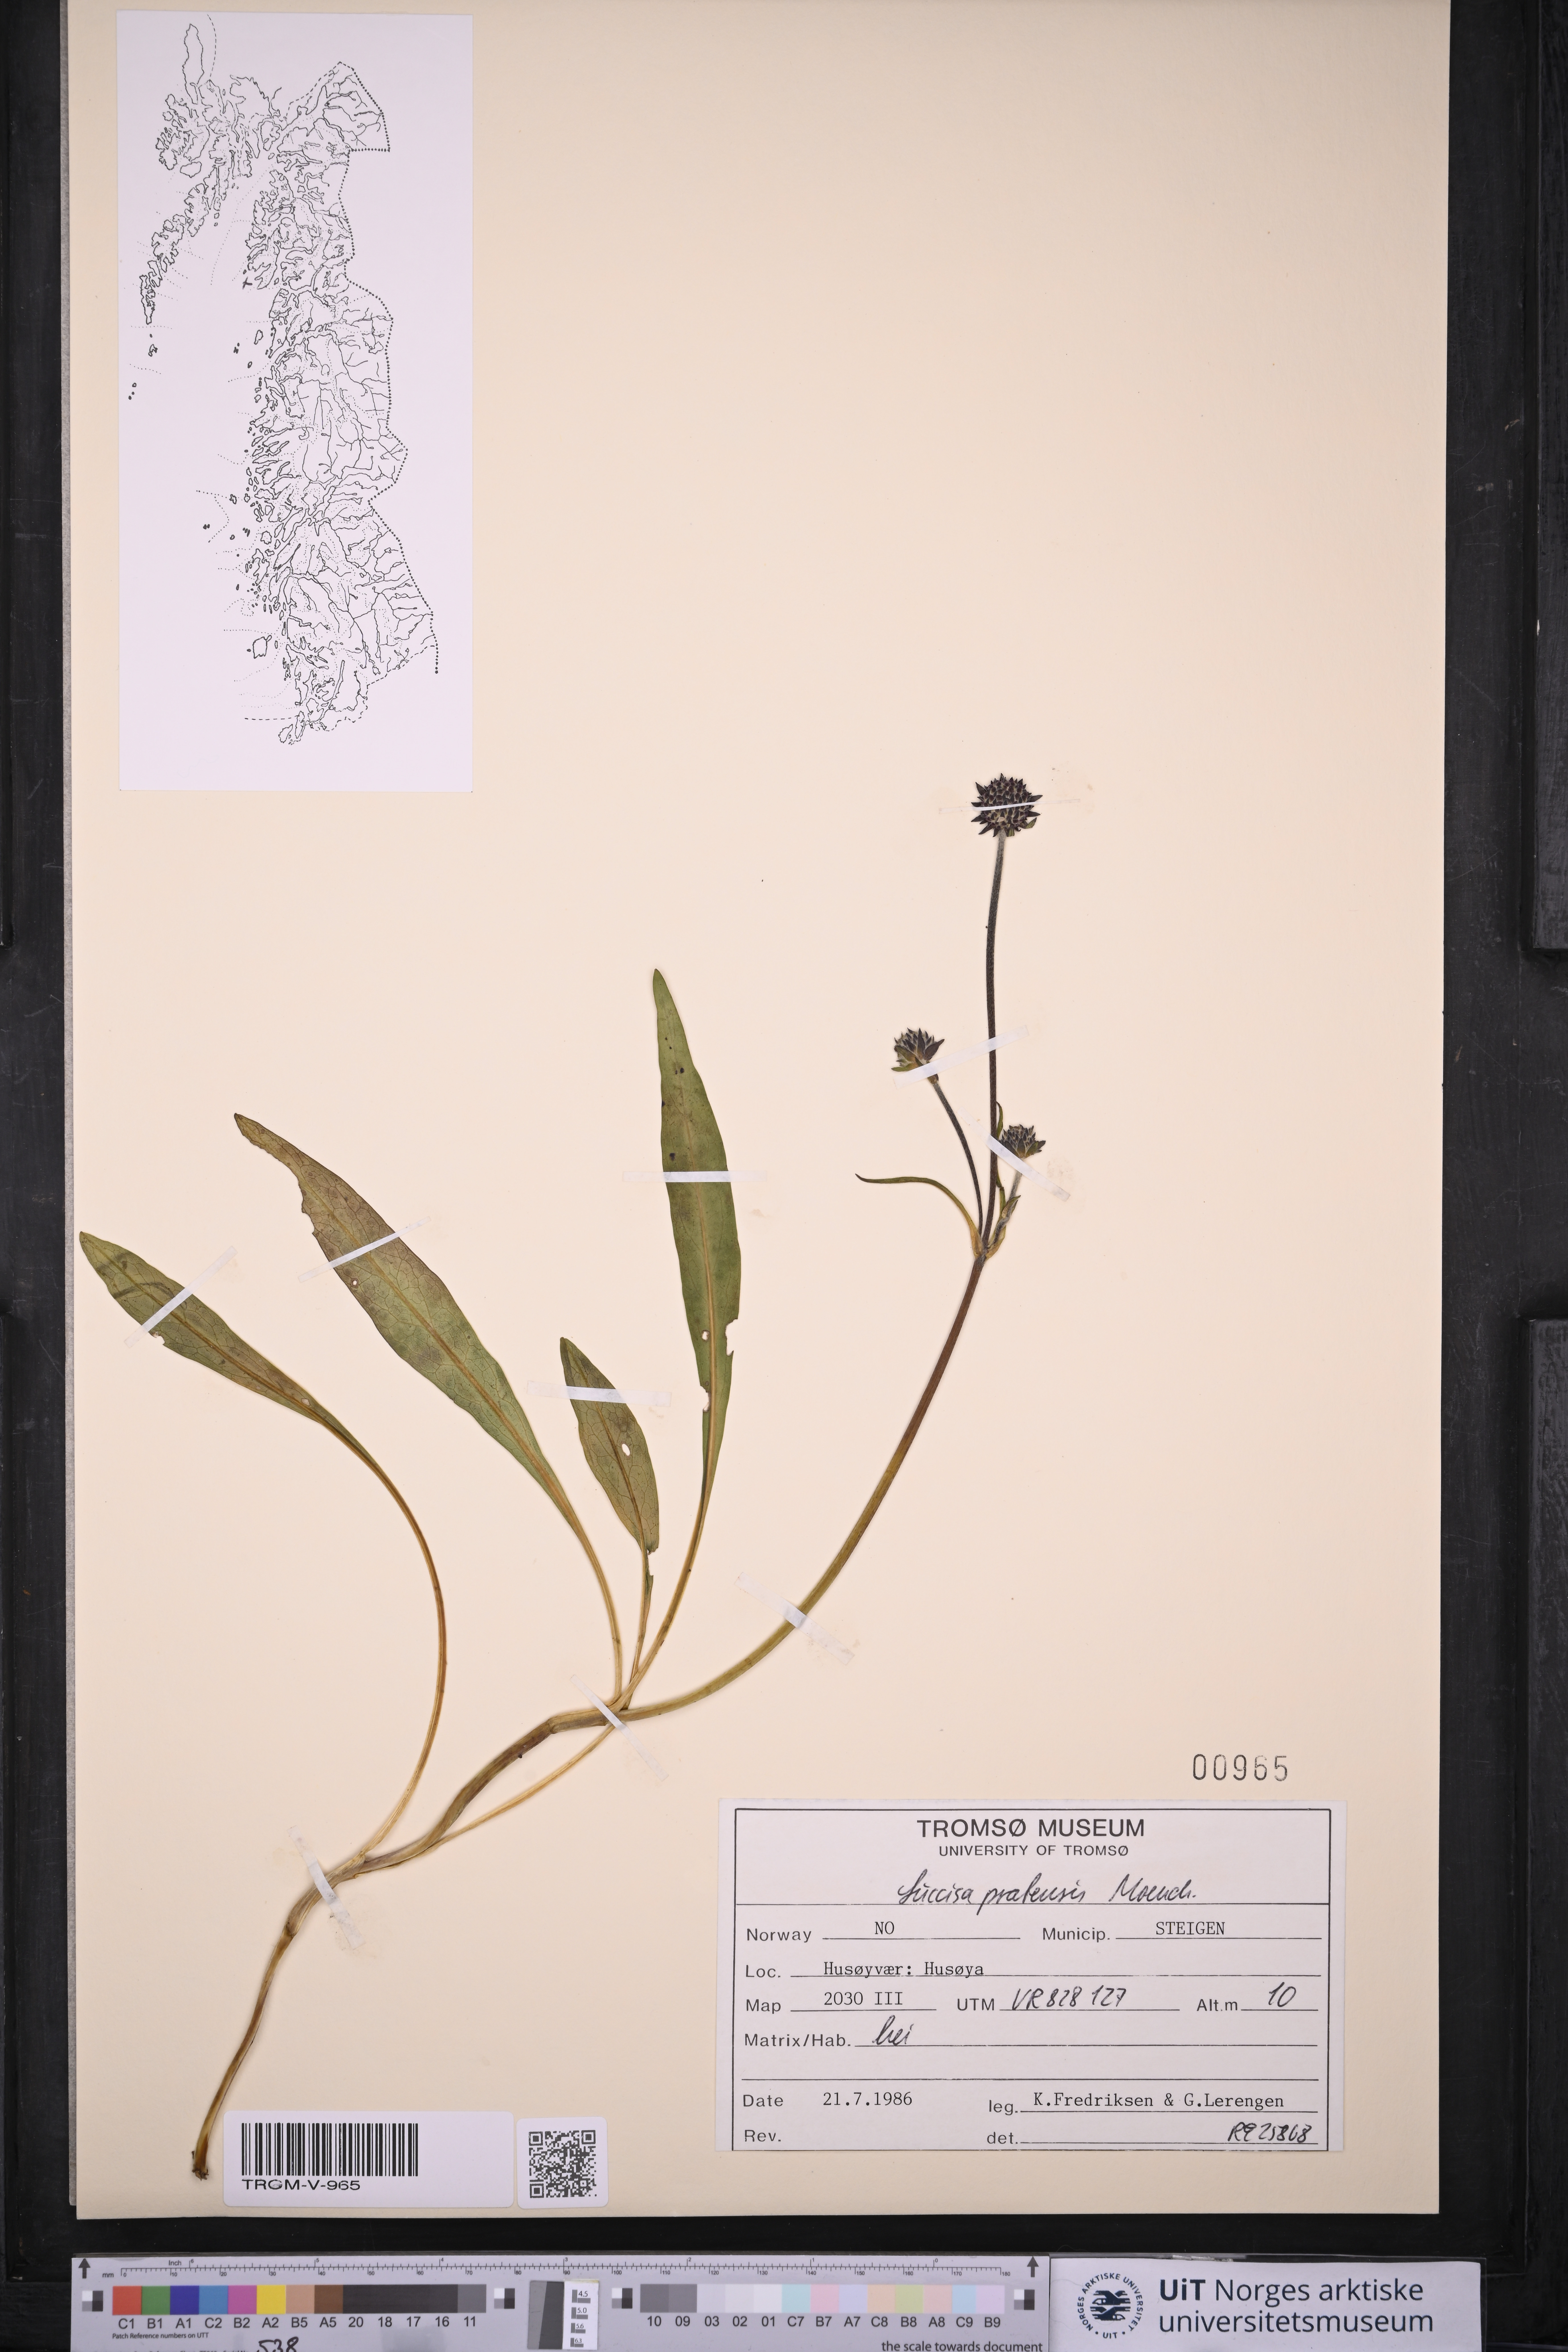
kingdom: Plantae
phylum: Tracheophyta
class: Magnoliopsida
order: Dipsacales
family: Caprifoliaceae
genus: Succisa
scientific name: Succisa pratensis
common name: Devil's-bit
